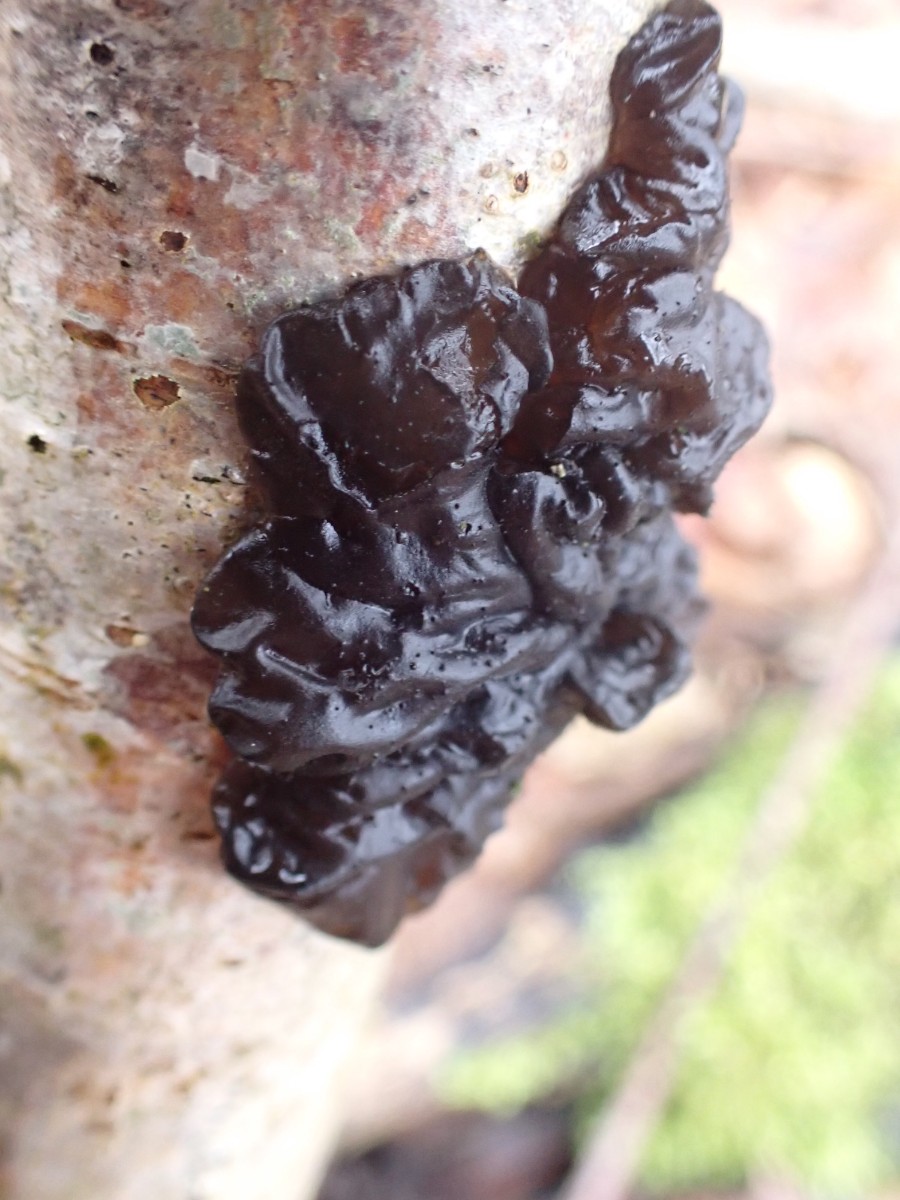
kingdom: Fungi
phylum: Basidiomycota
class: Agaricomycetes
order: Auriculariales
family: Auriculariaceae
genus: Exidia
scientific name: Exidia nigricans
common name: almindelig bævretop
